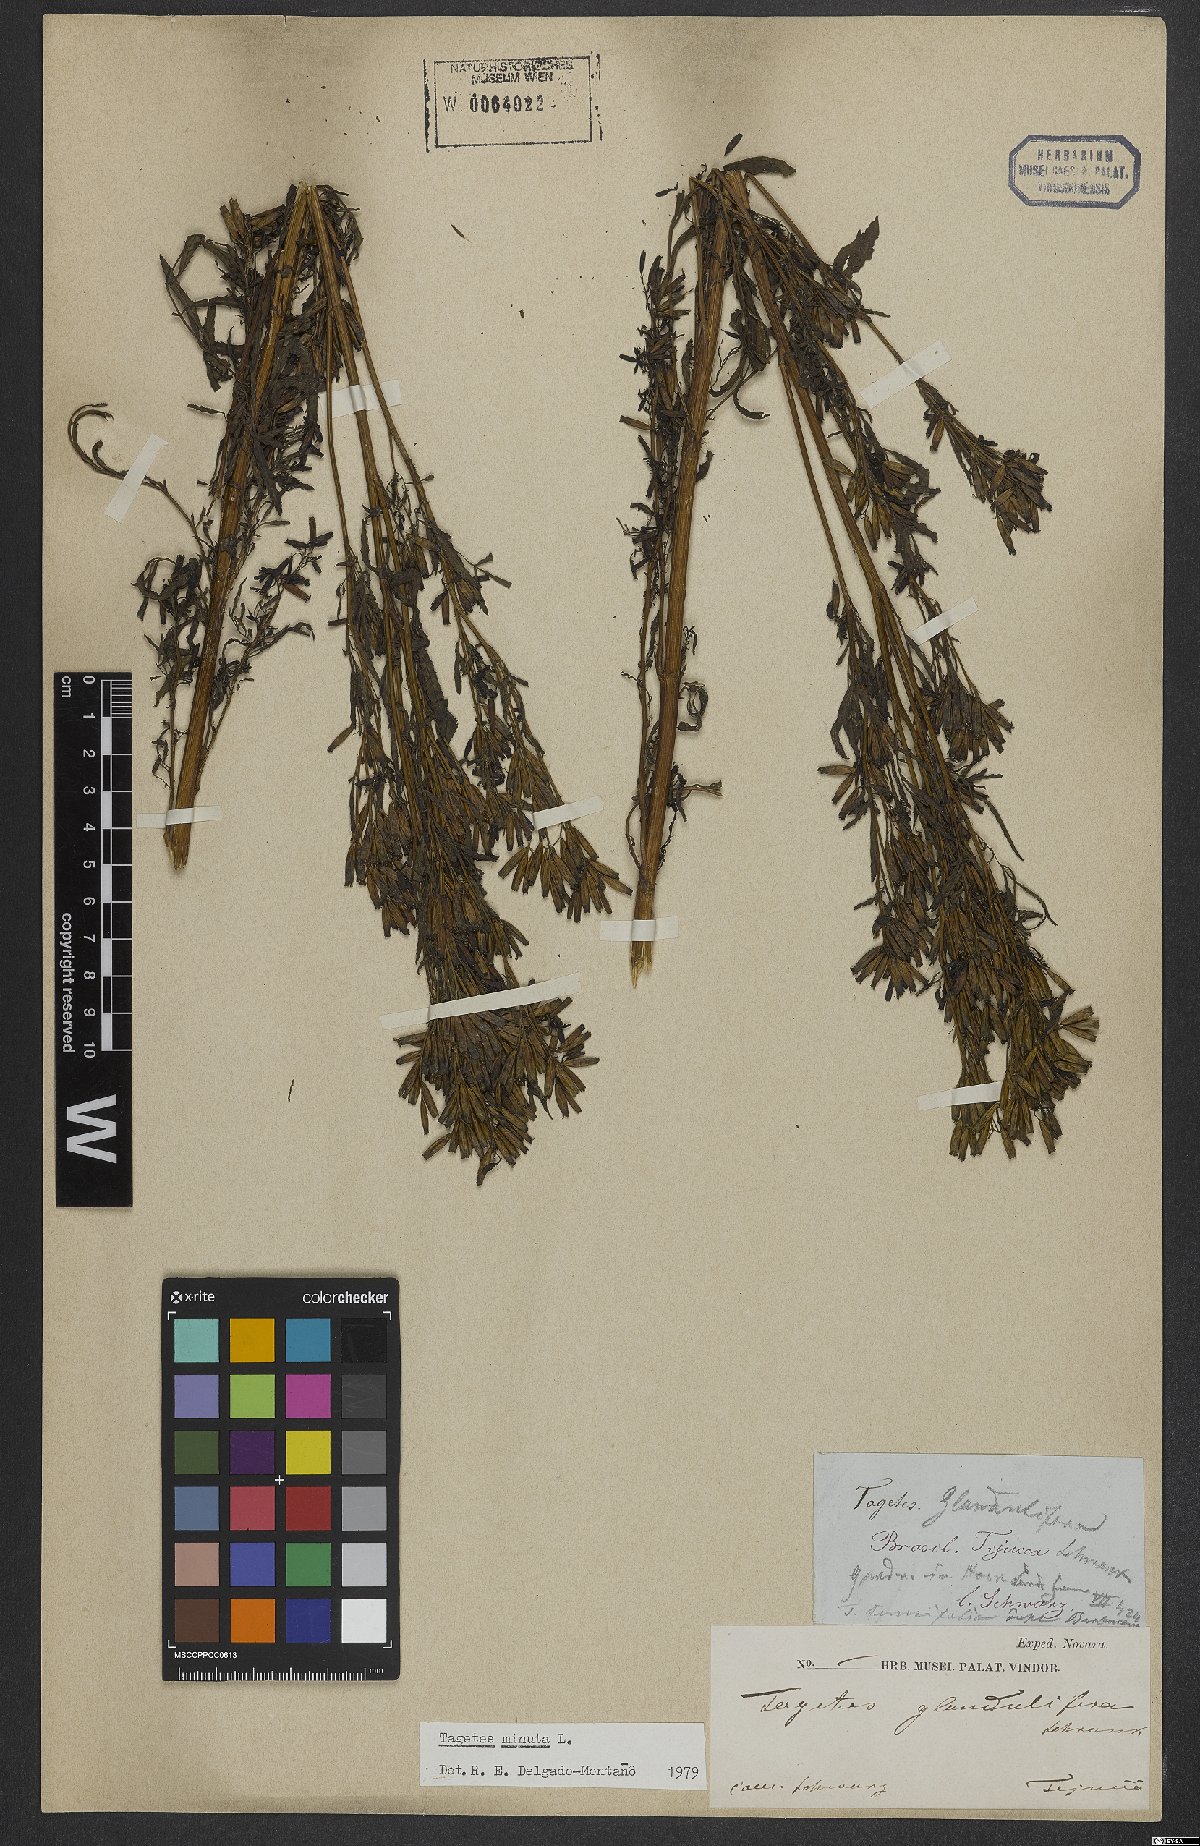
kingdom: Plantae
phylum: Tracheophyta
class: Magnoliopsida
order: Asterales
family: Asteraceae
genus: Tagetes
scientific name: Tagetes minuta
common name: Muster john henry
